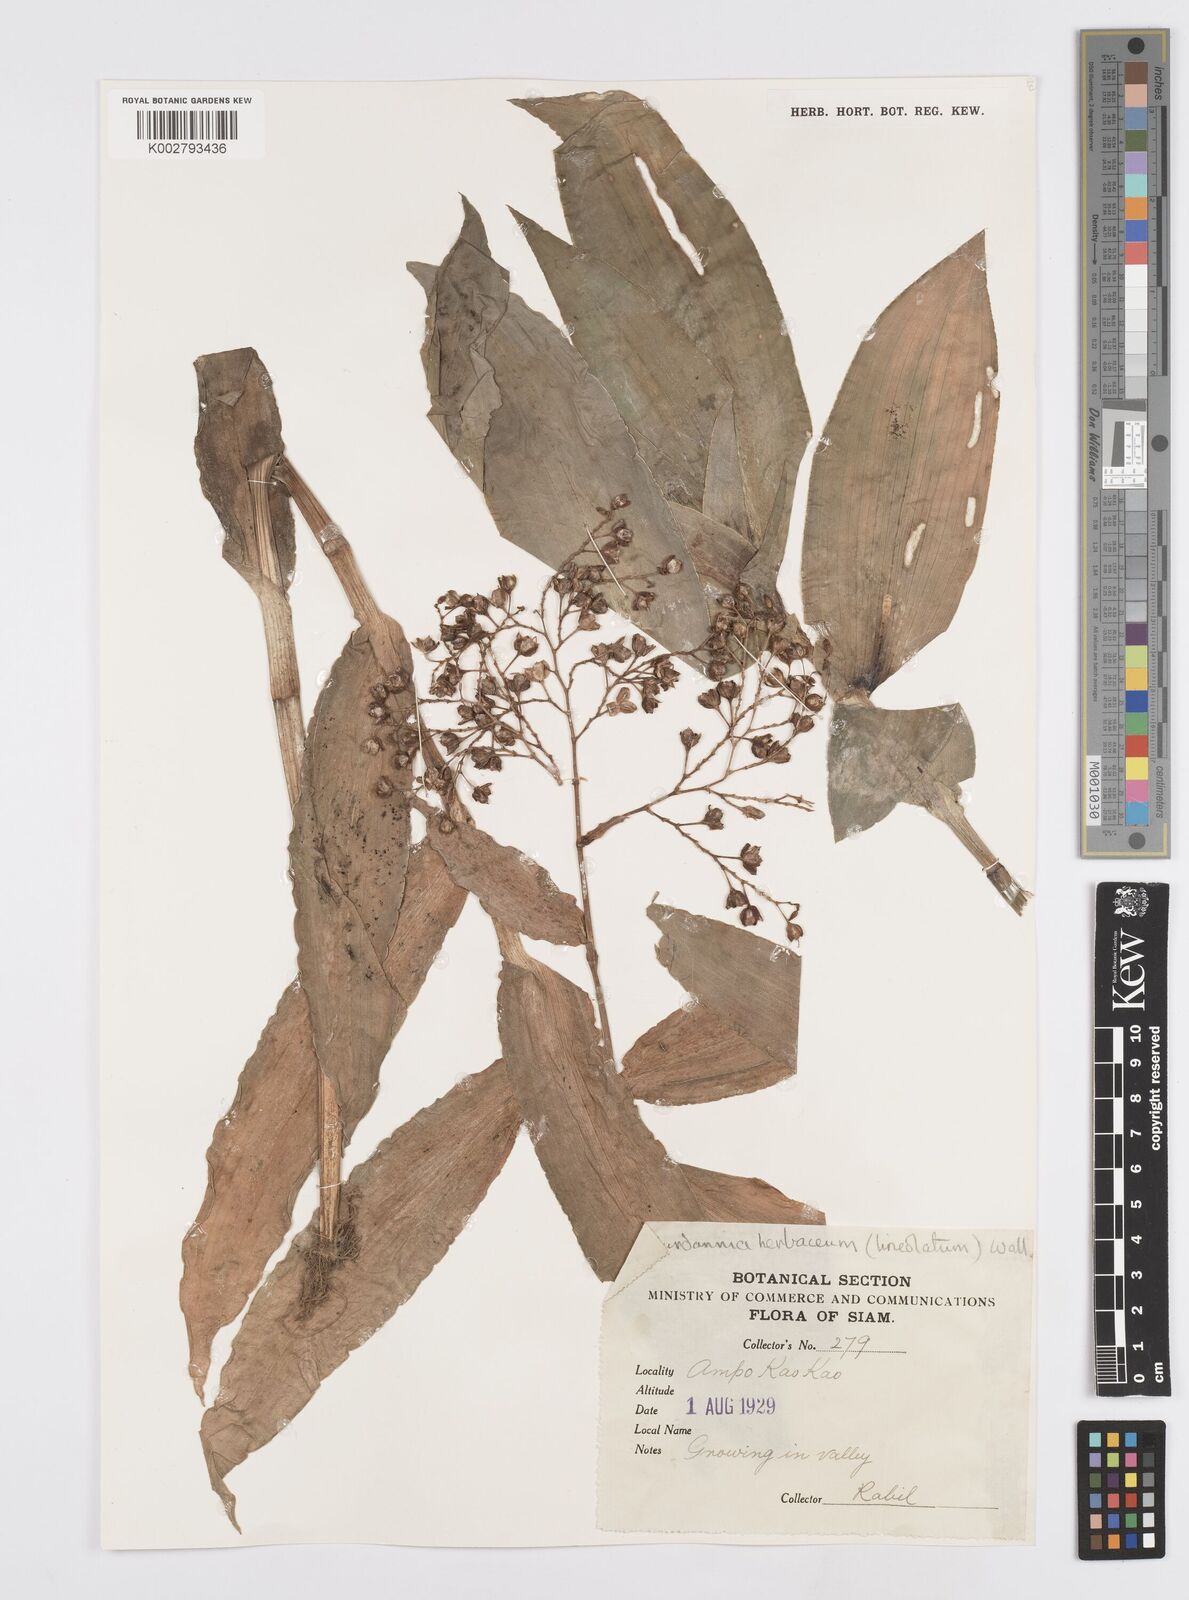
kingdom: Plantae
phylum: Tracheophyta
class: Liliopsida
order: Commelinales
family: Commelinaceae
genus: Murdannia
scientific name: Murdannia
